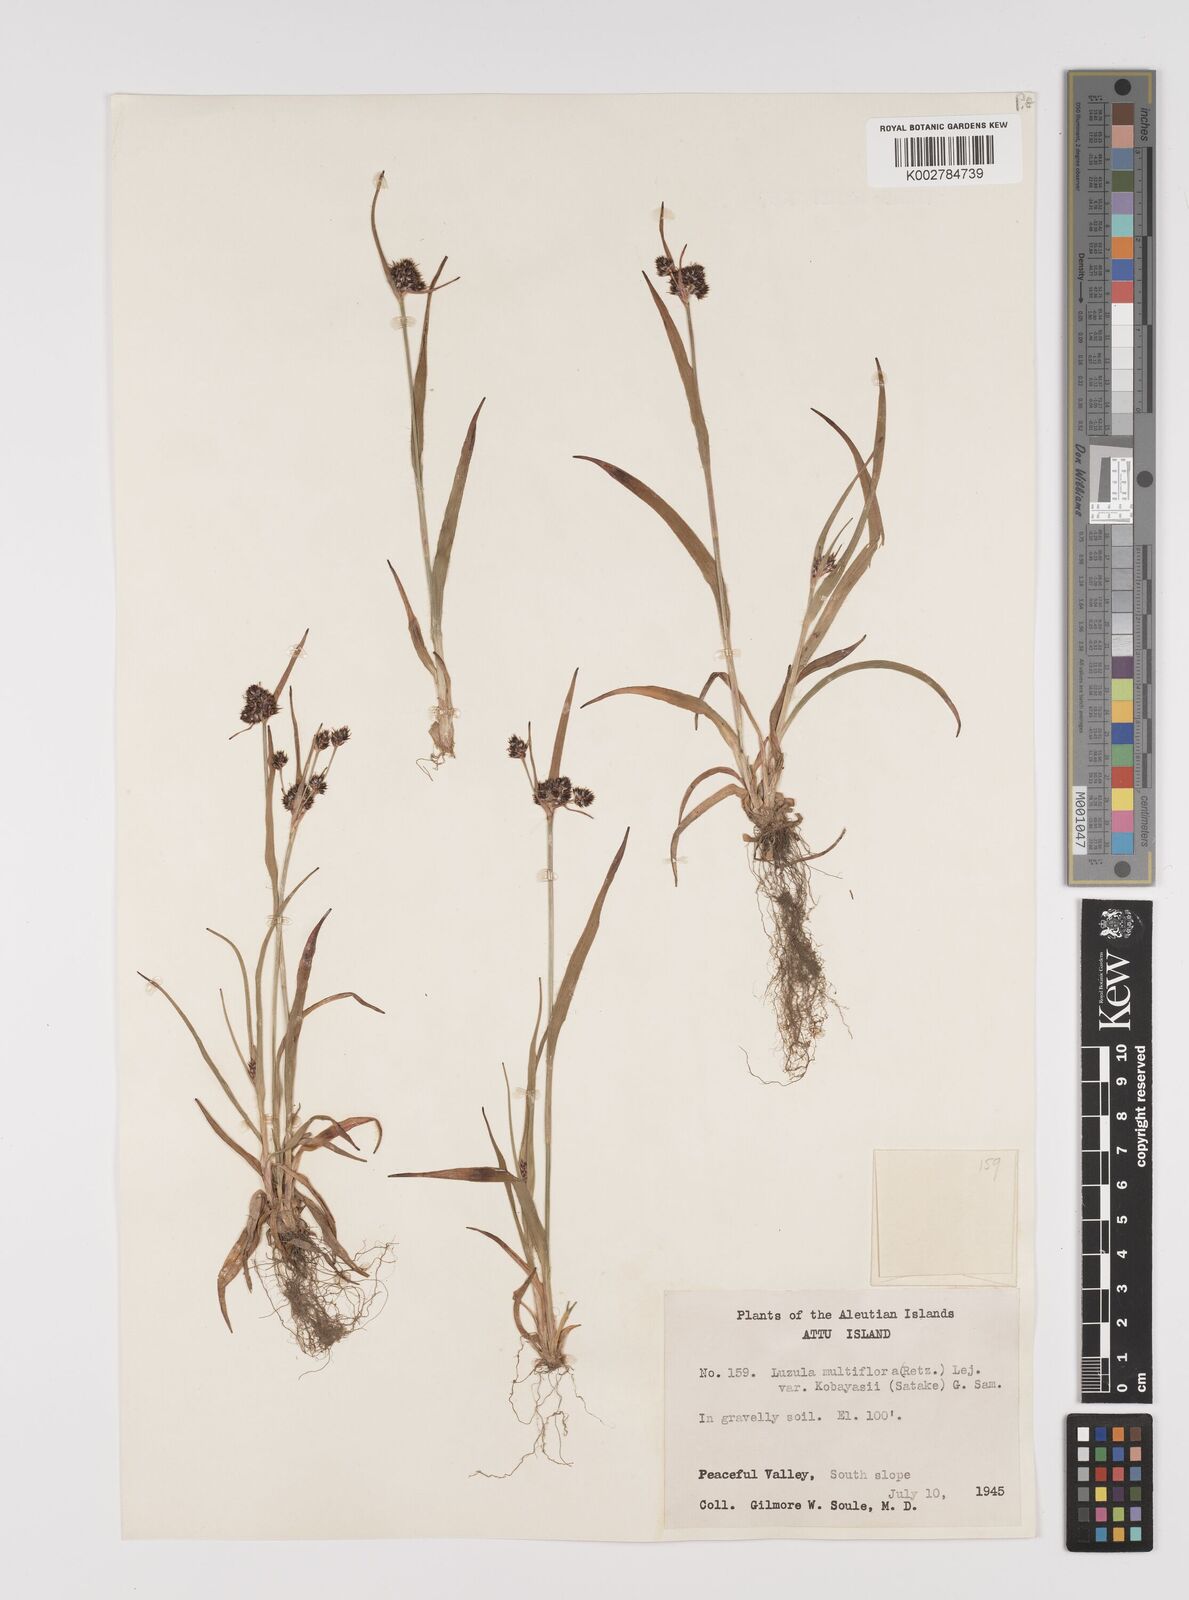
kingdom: Plantae
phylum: Tracheophyta
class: Liliopsida
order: Poales
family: Juncaceae
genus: Luzula
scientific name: Luzula campestris
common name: Field wood-rush
